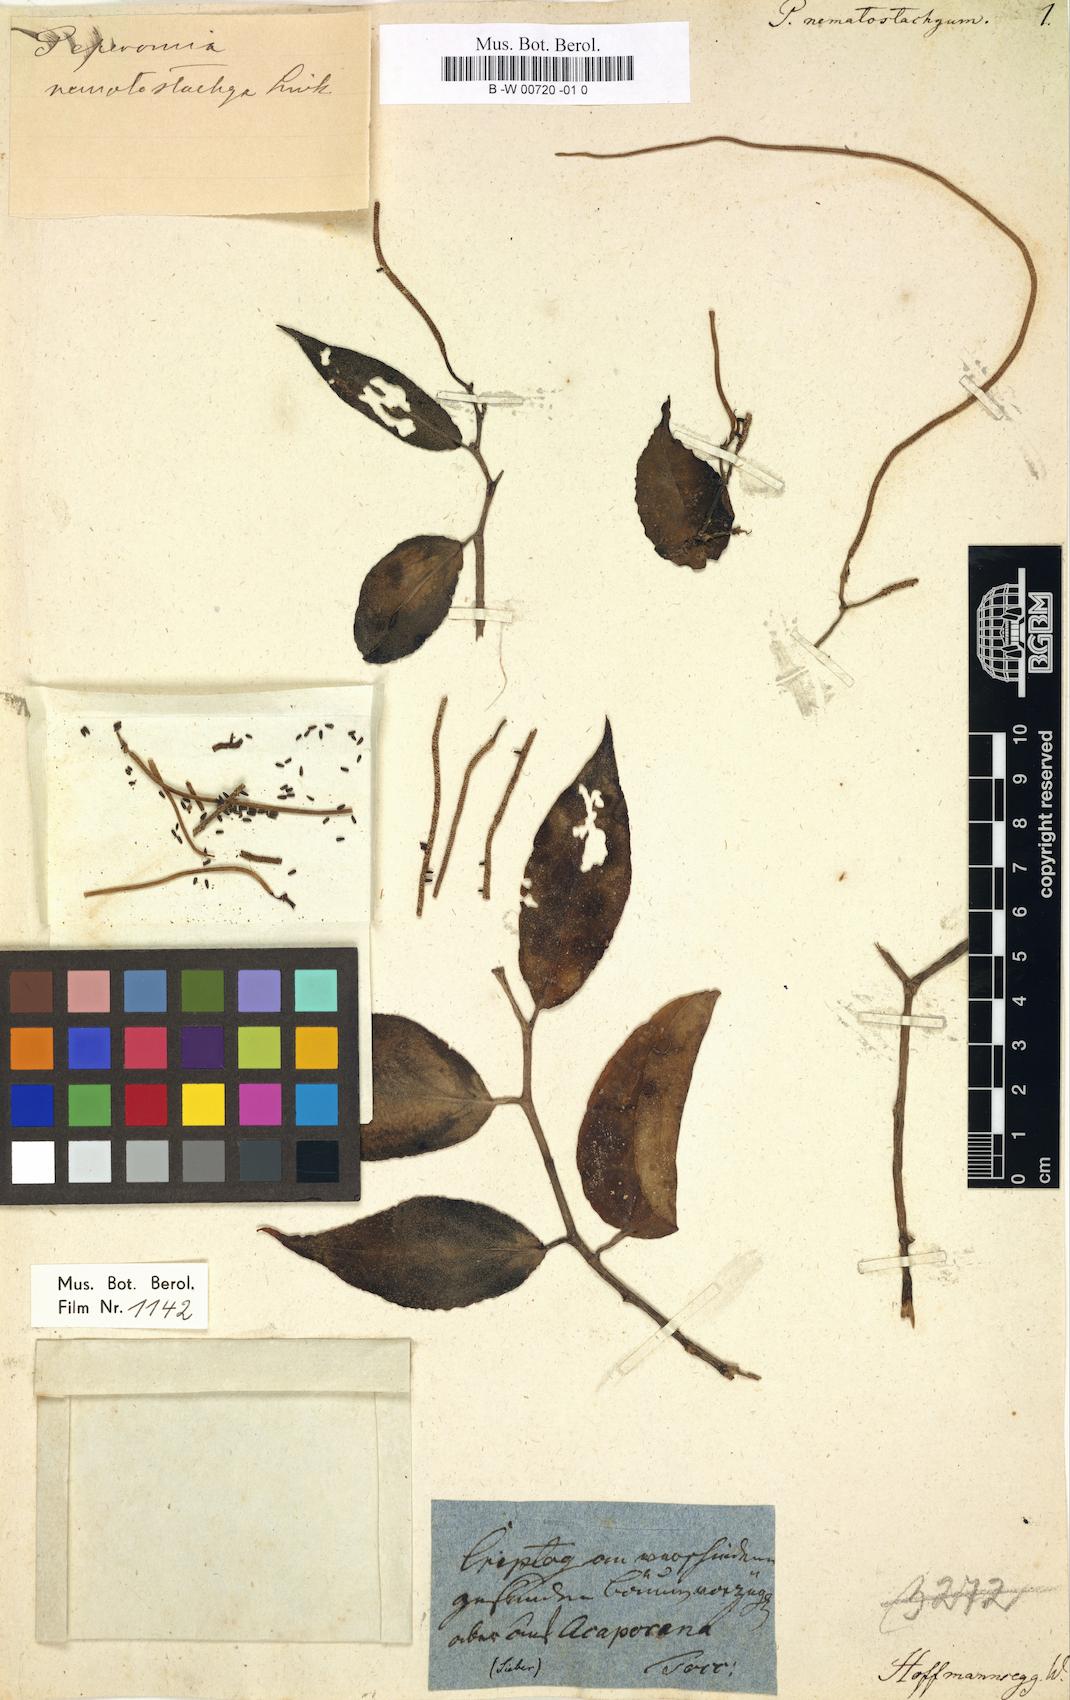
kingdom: Plantae
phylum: Tracheophyta
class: Magnoliopsida
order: Piperales
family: Piperaceae
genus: Peperomia
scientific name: Peperomia macrostachyos
